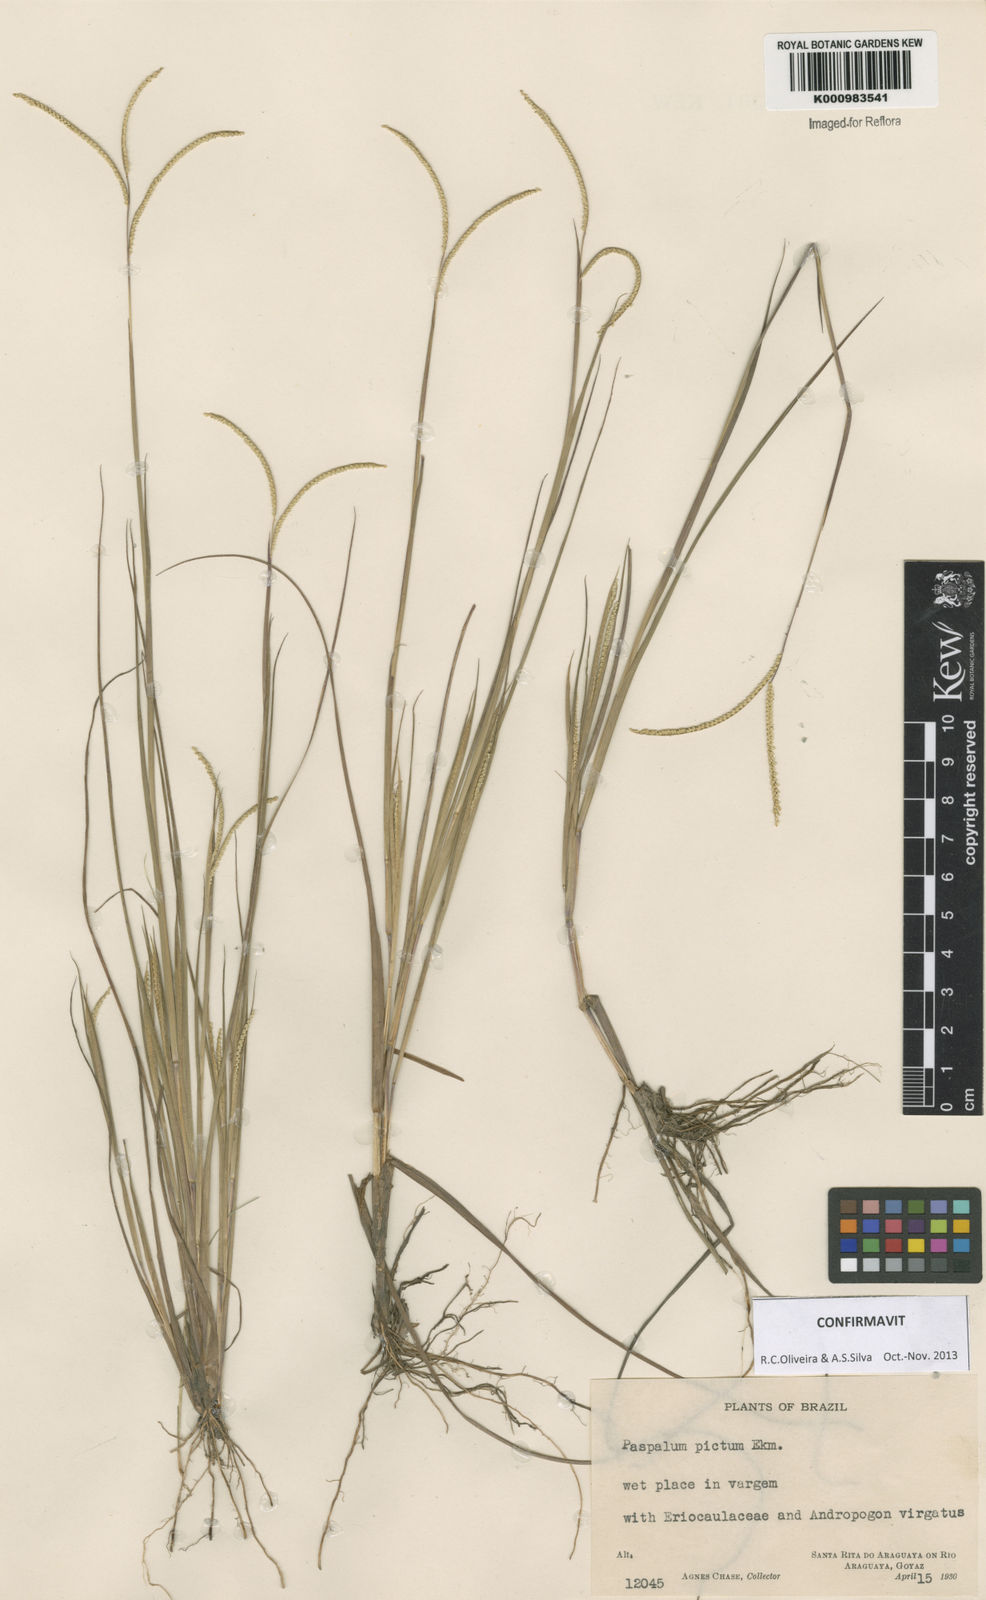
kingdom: Plantae
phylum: Tracheophyta
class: Liliopsida
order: Poales
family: Poaceae
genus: Paspalum
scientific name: Paspalum pictum
